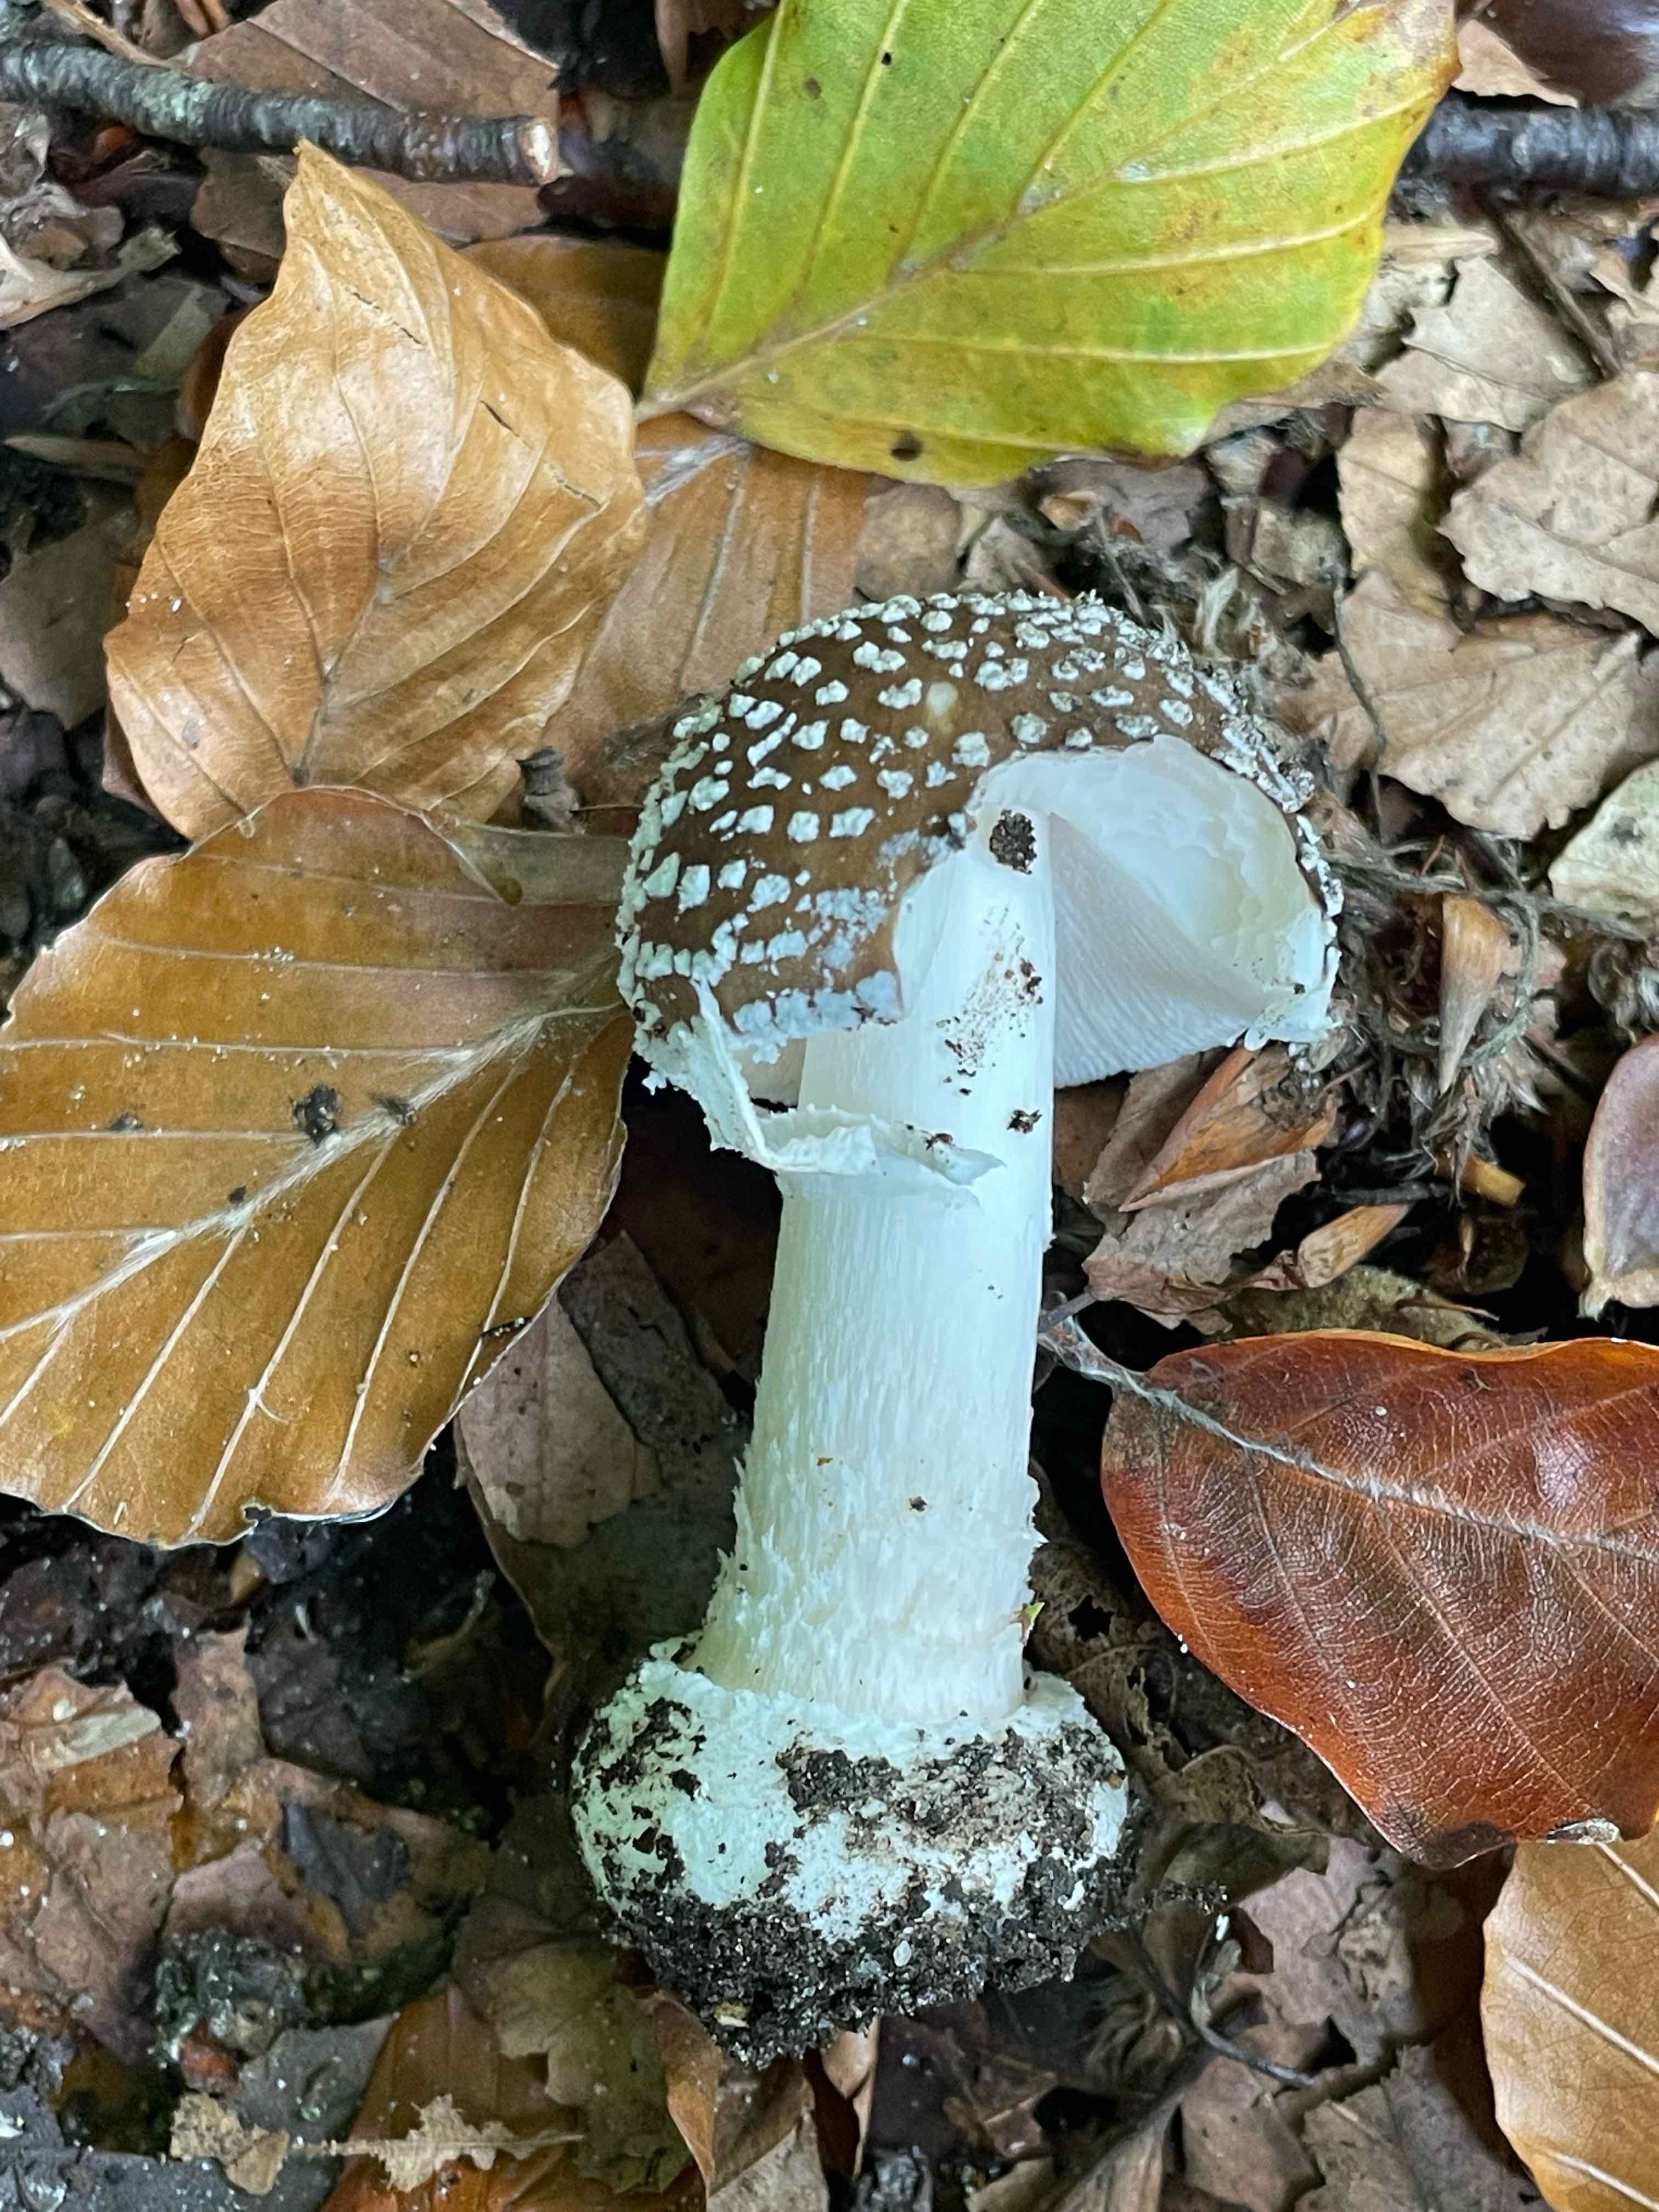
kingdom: Fungi
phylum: Basidiomycota
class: Agaricomycetes
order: Agaricales
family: Amanitaceae
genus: Amanita
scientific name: Amanita pantherina
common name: panter-fluesvamp
